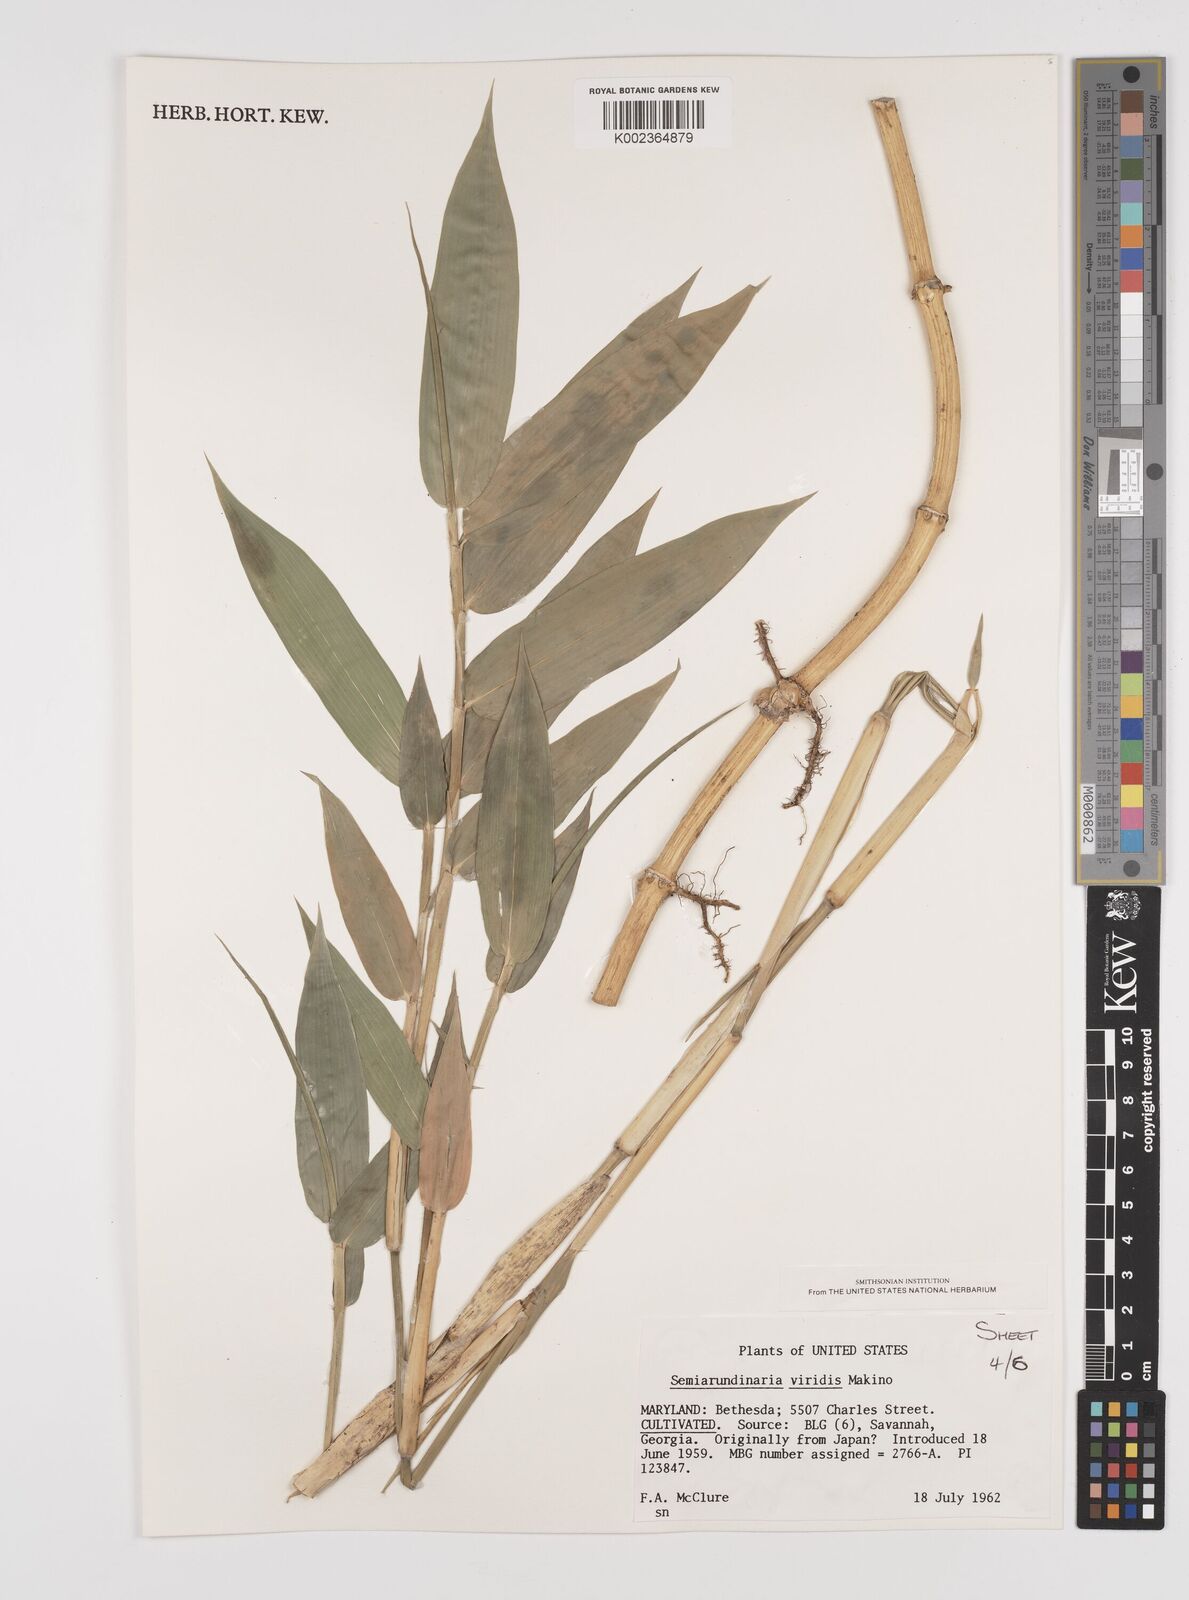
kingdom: Plantae
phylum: Tracheophyta
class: Liliopsida
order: Poales
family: Poaceae
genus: Semiarundinaria
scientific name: Semiarundinaria fastuosa
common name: Narihira bamboo
